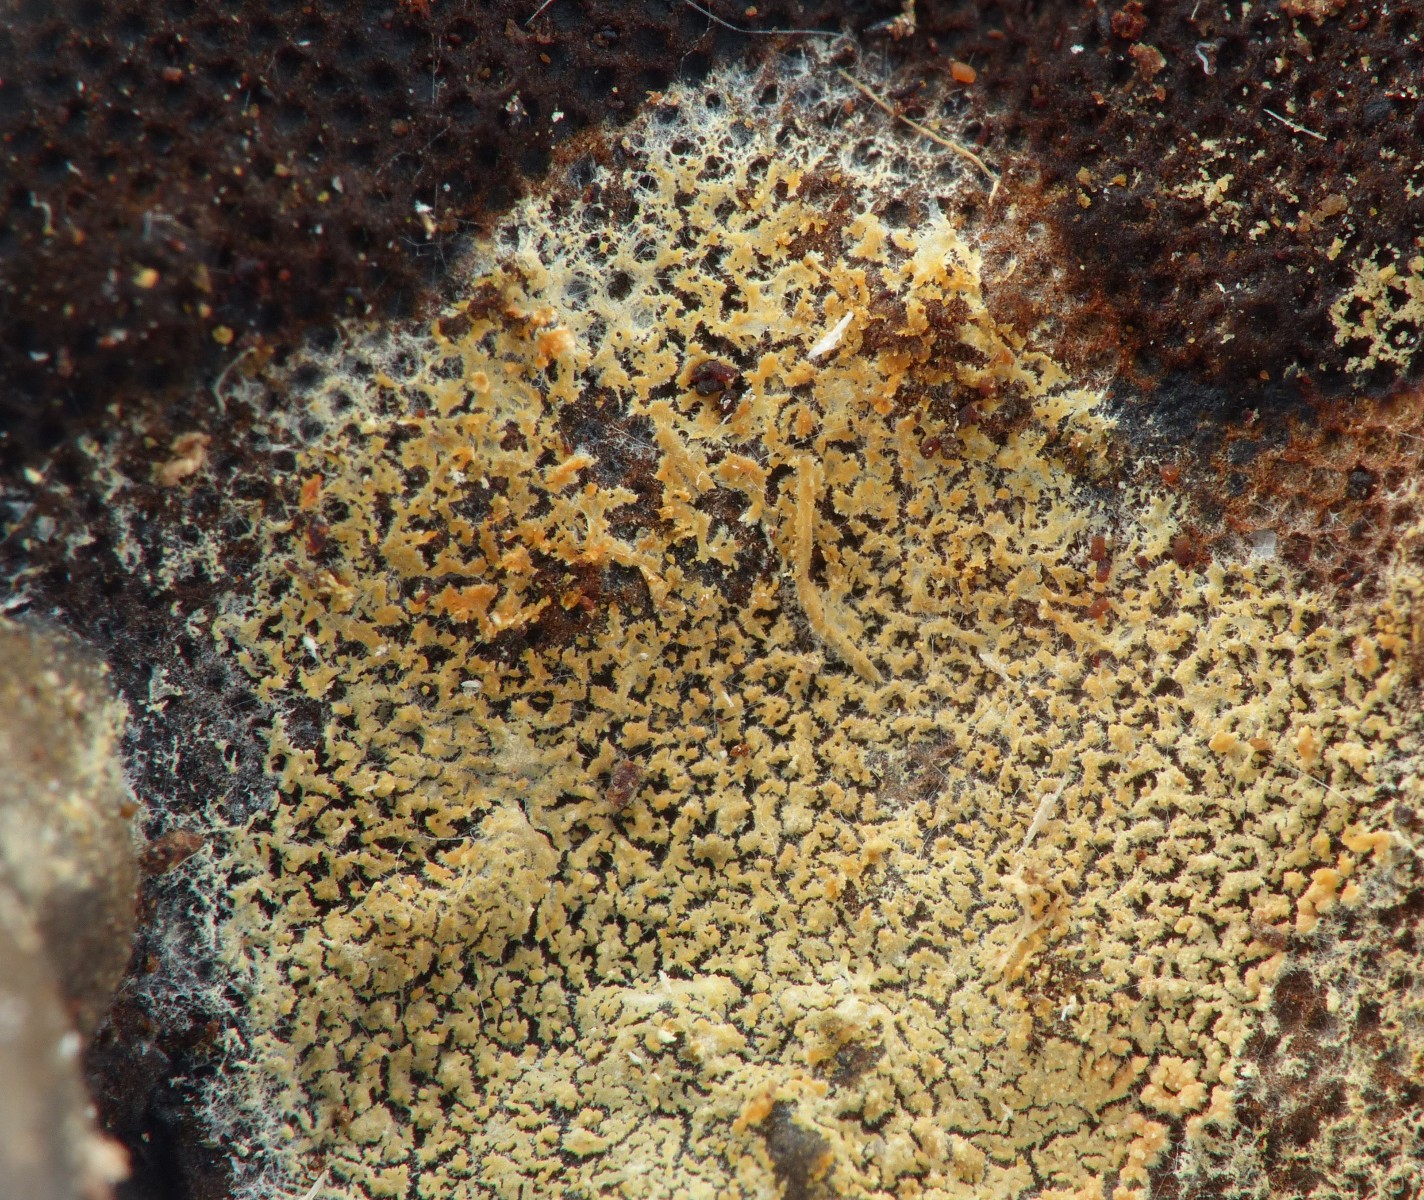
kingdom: Fungi
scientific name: Fungi
